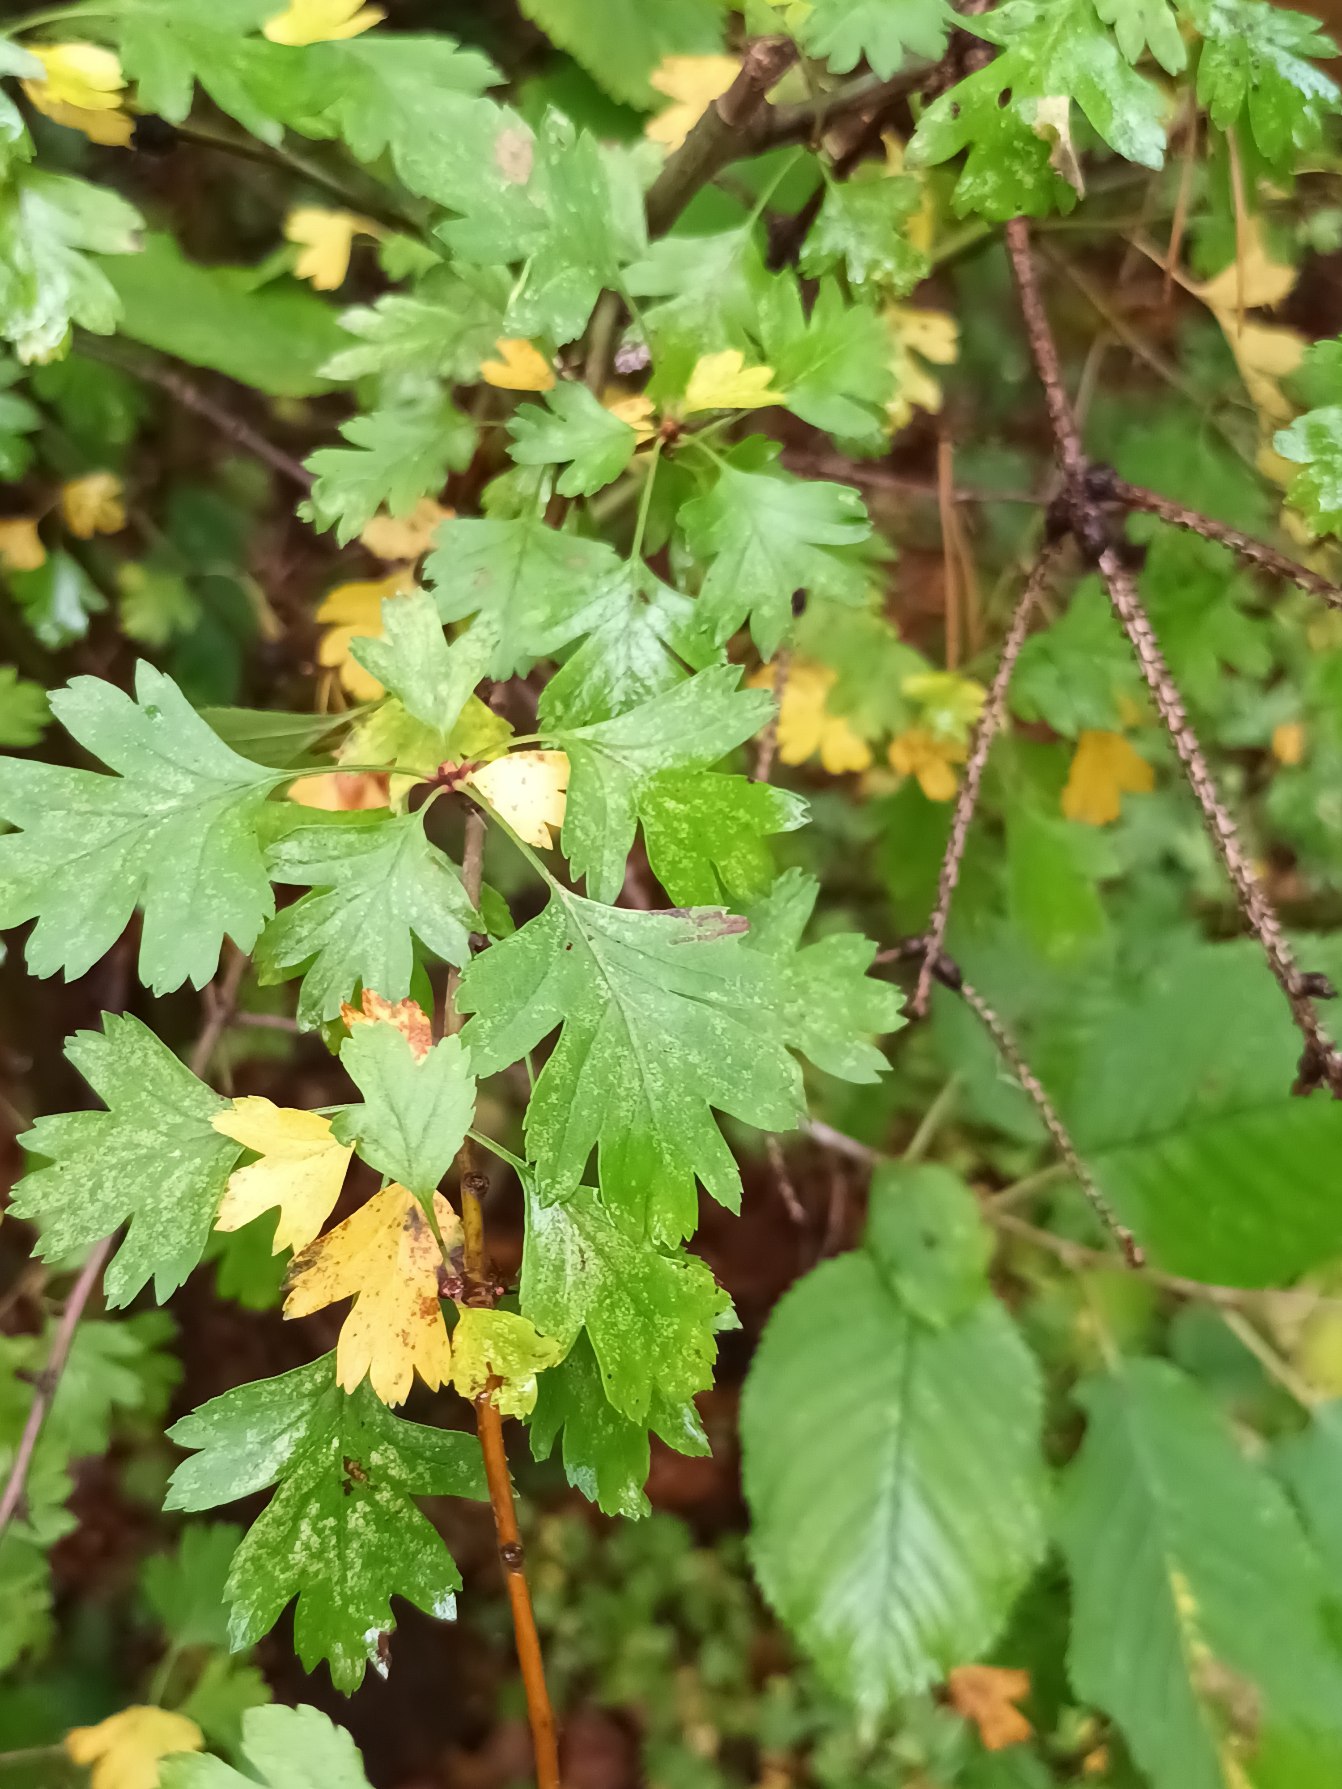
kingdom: Plantae
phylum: Tracheophyta
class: Magnoliopsida
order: Rosales
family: Rosaceae
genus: Crataegus
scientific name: Crataegus monogyna
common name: Engriflet hvidtjørn
